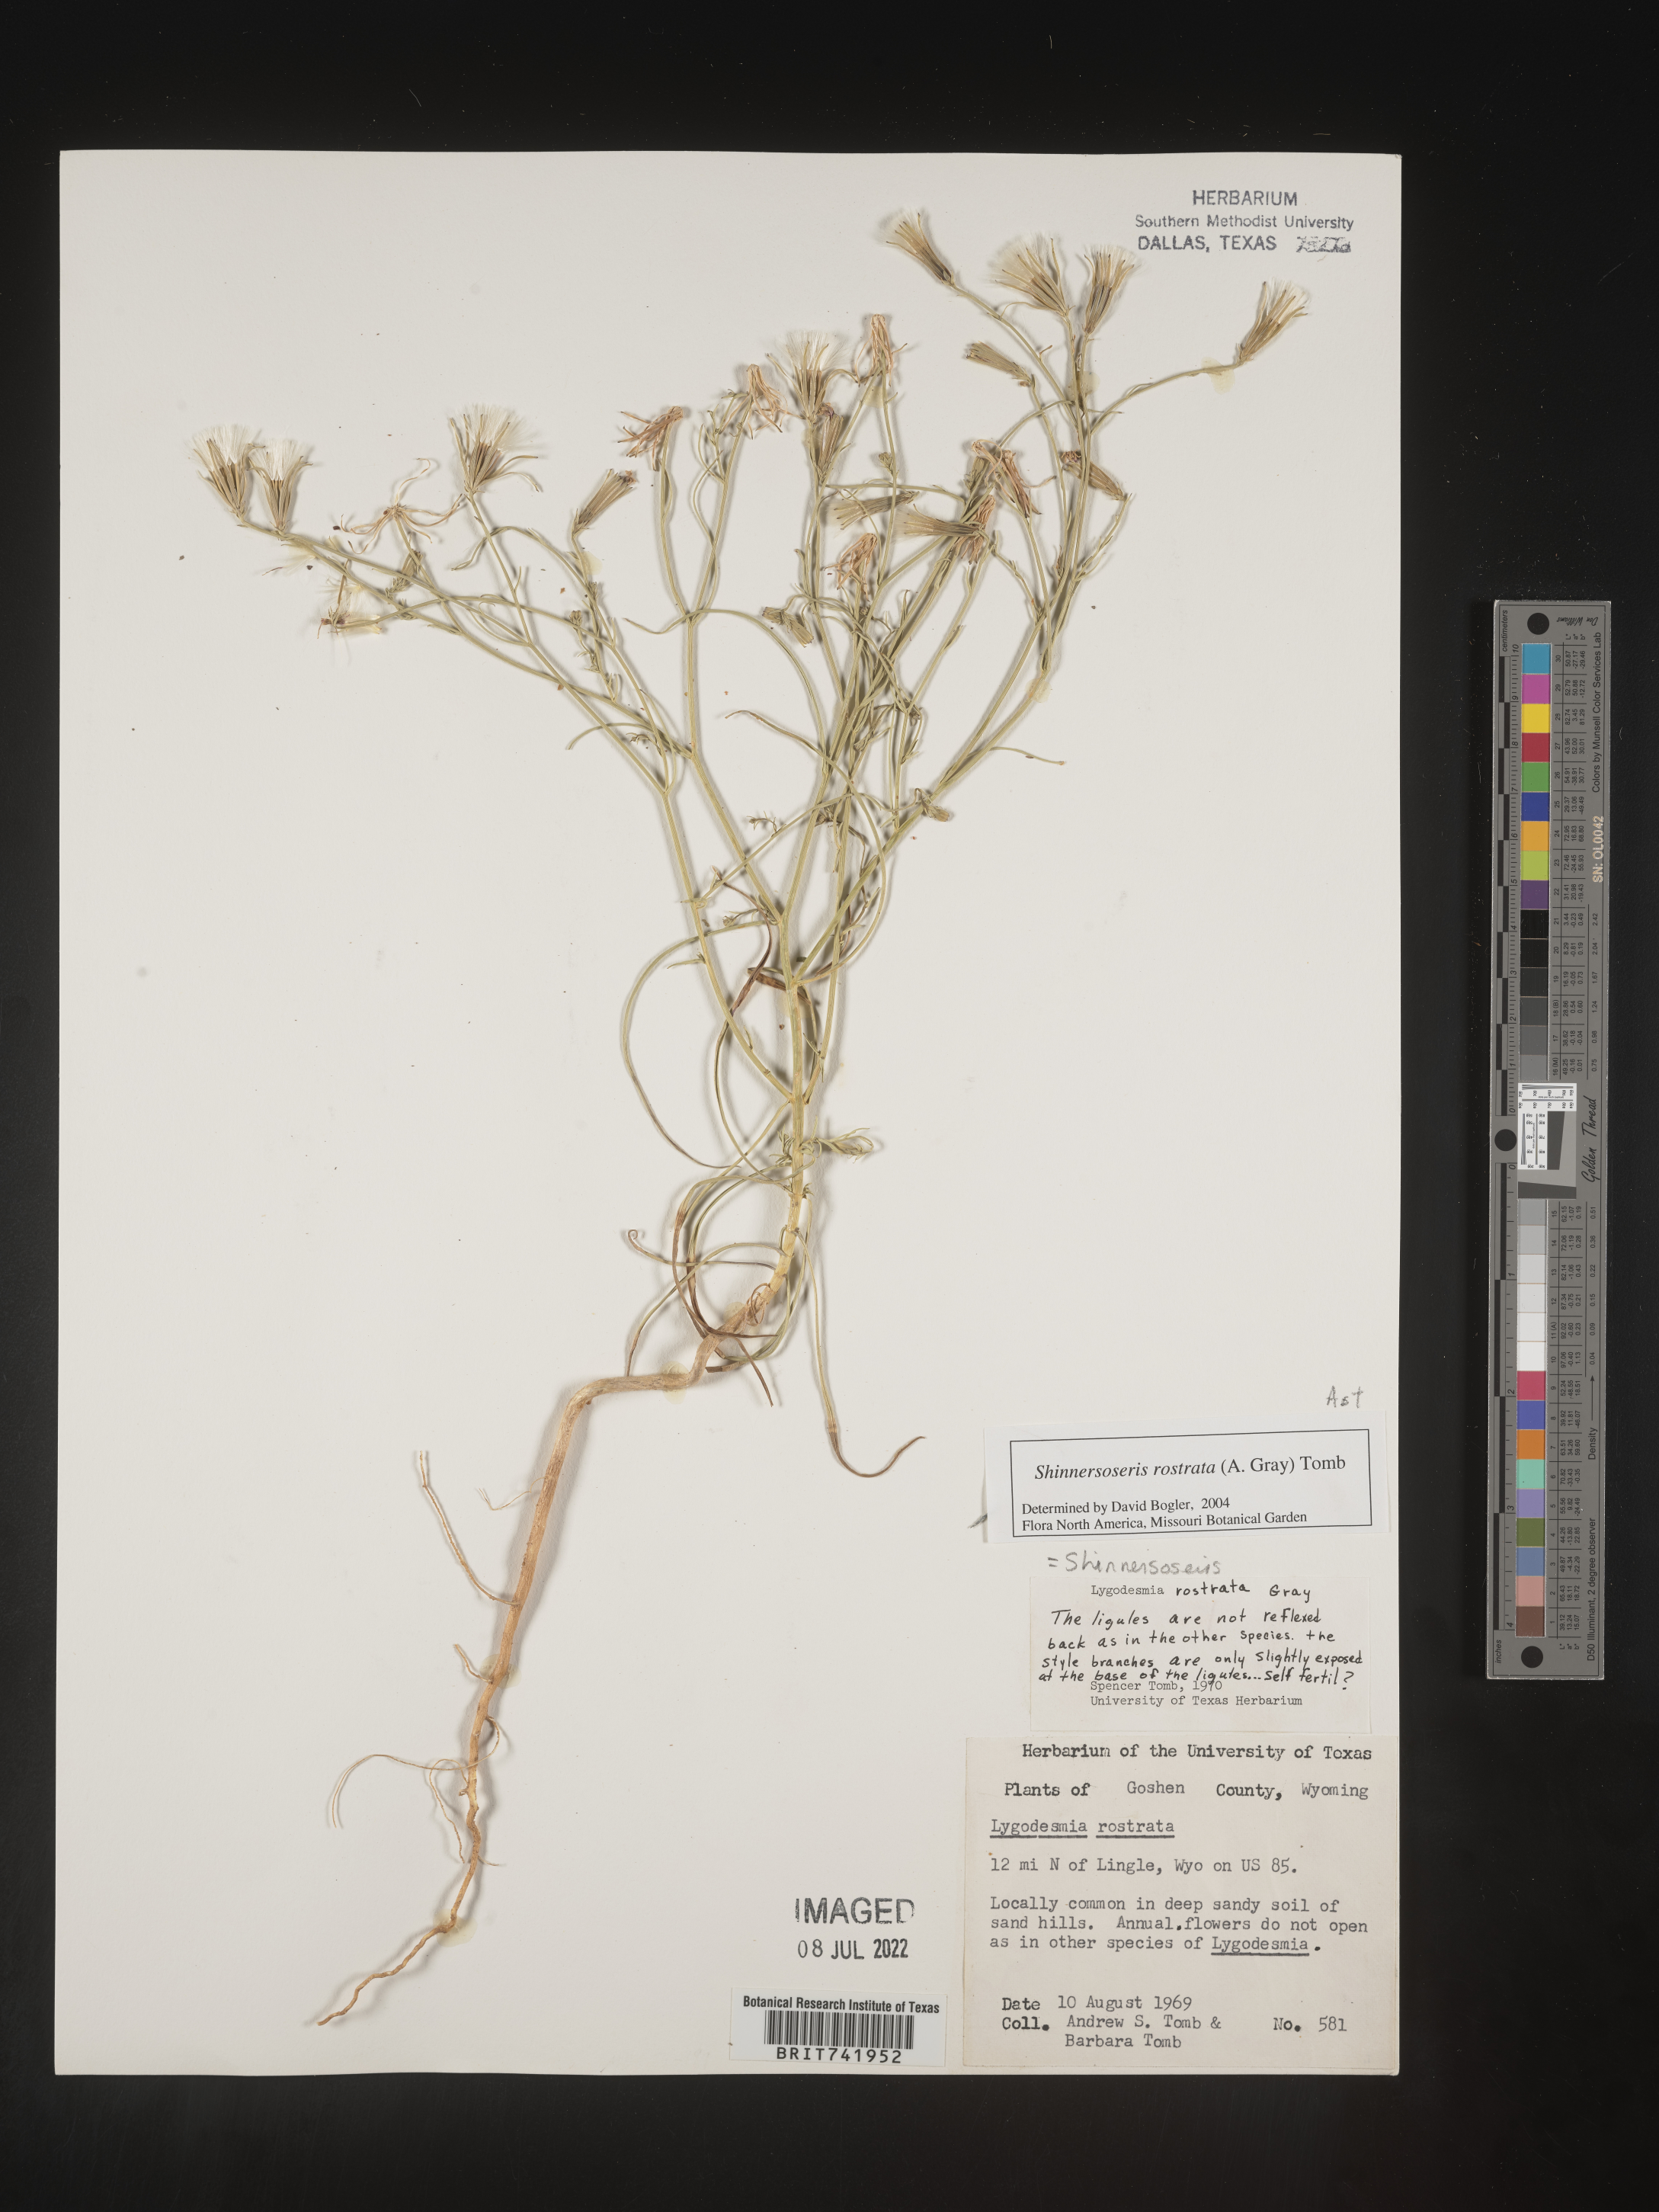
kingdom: Plantae
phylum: Tracheophyta
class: Magnoliopsida
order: Asterales
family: Asteraceae
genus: Shinnersoseris
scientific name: Shinnersoseris
